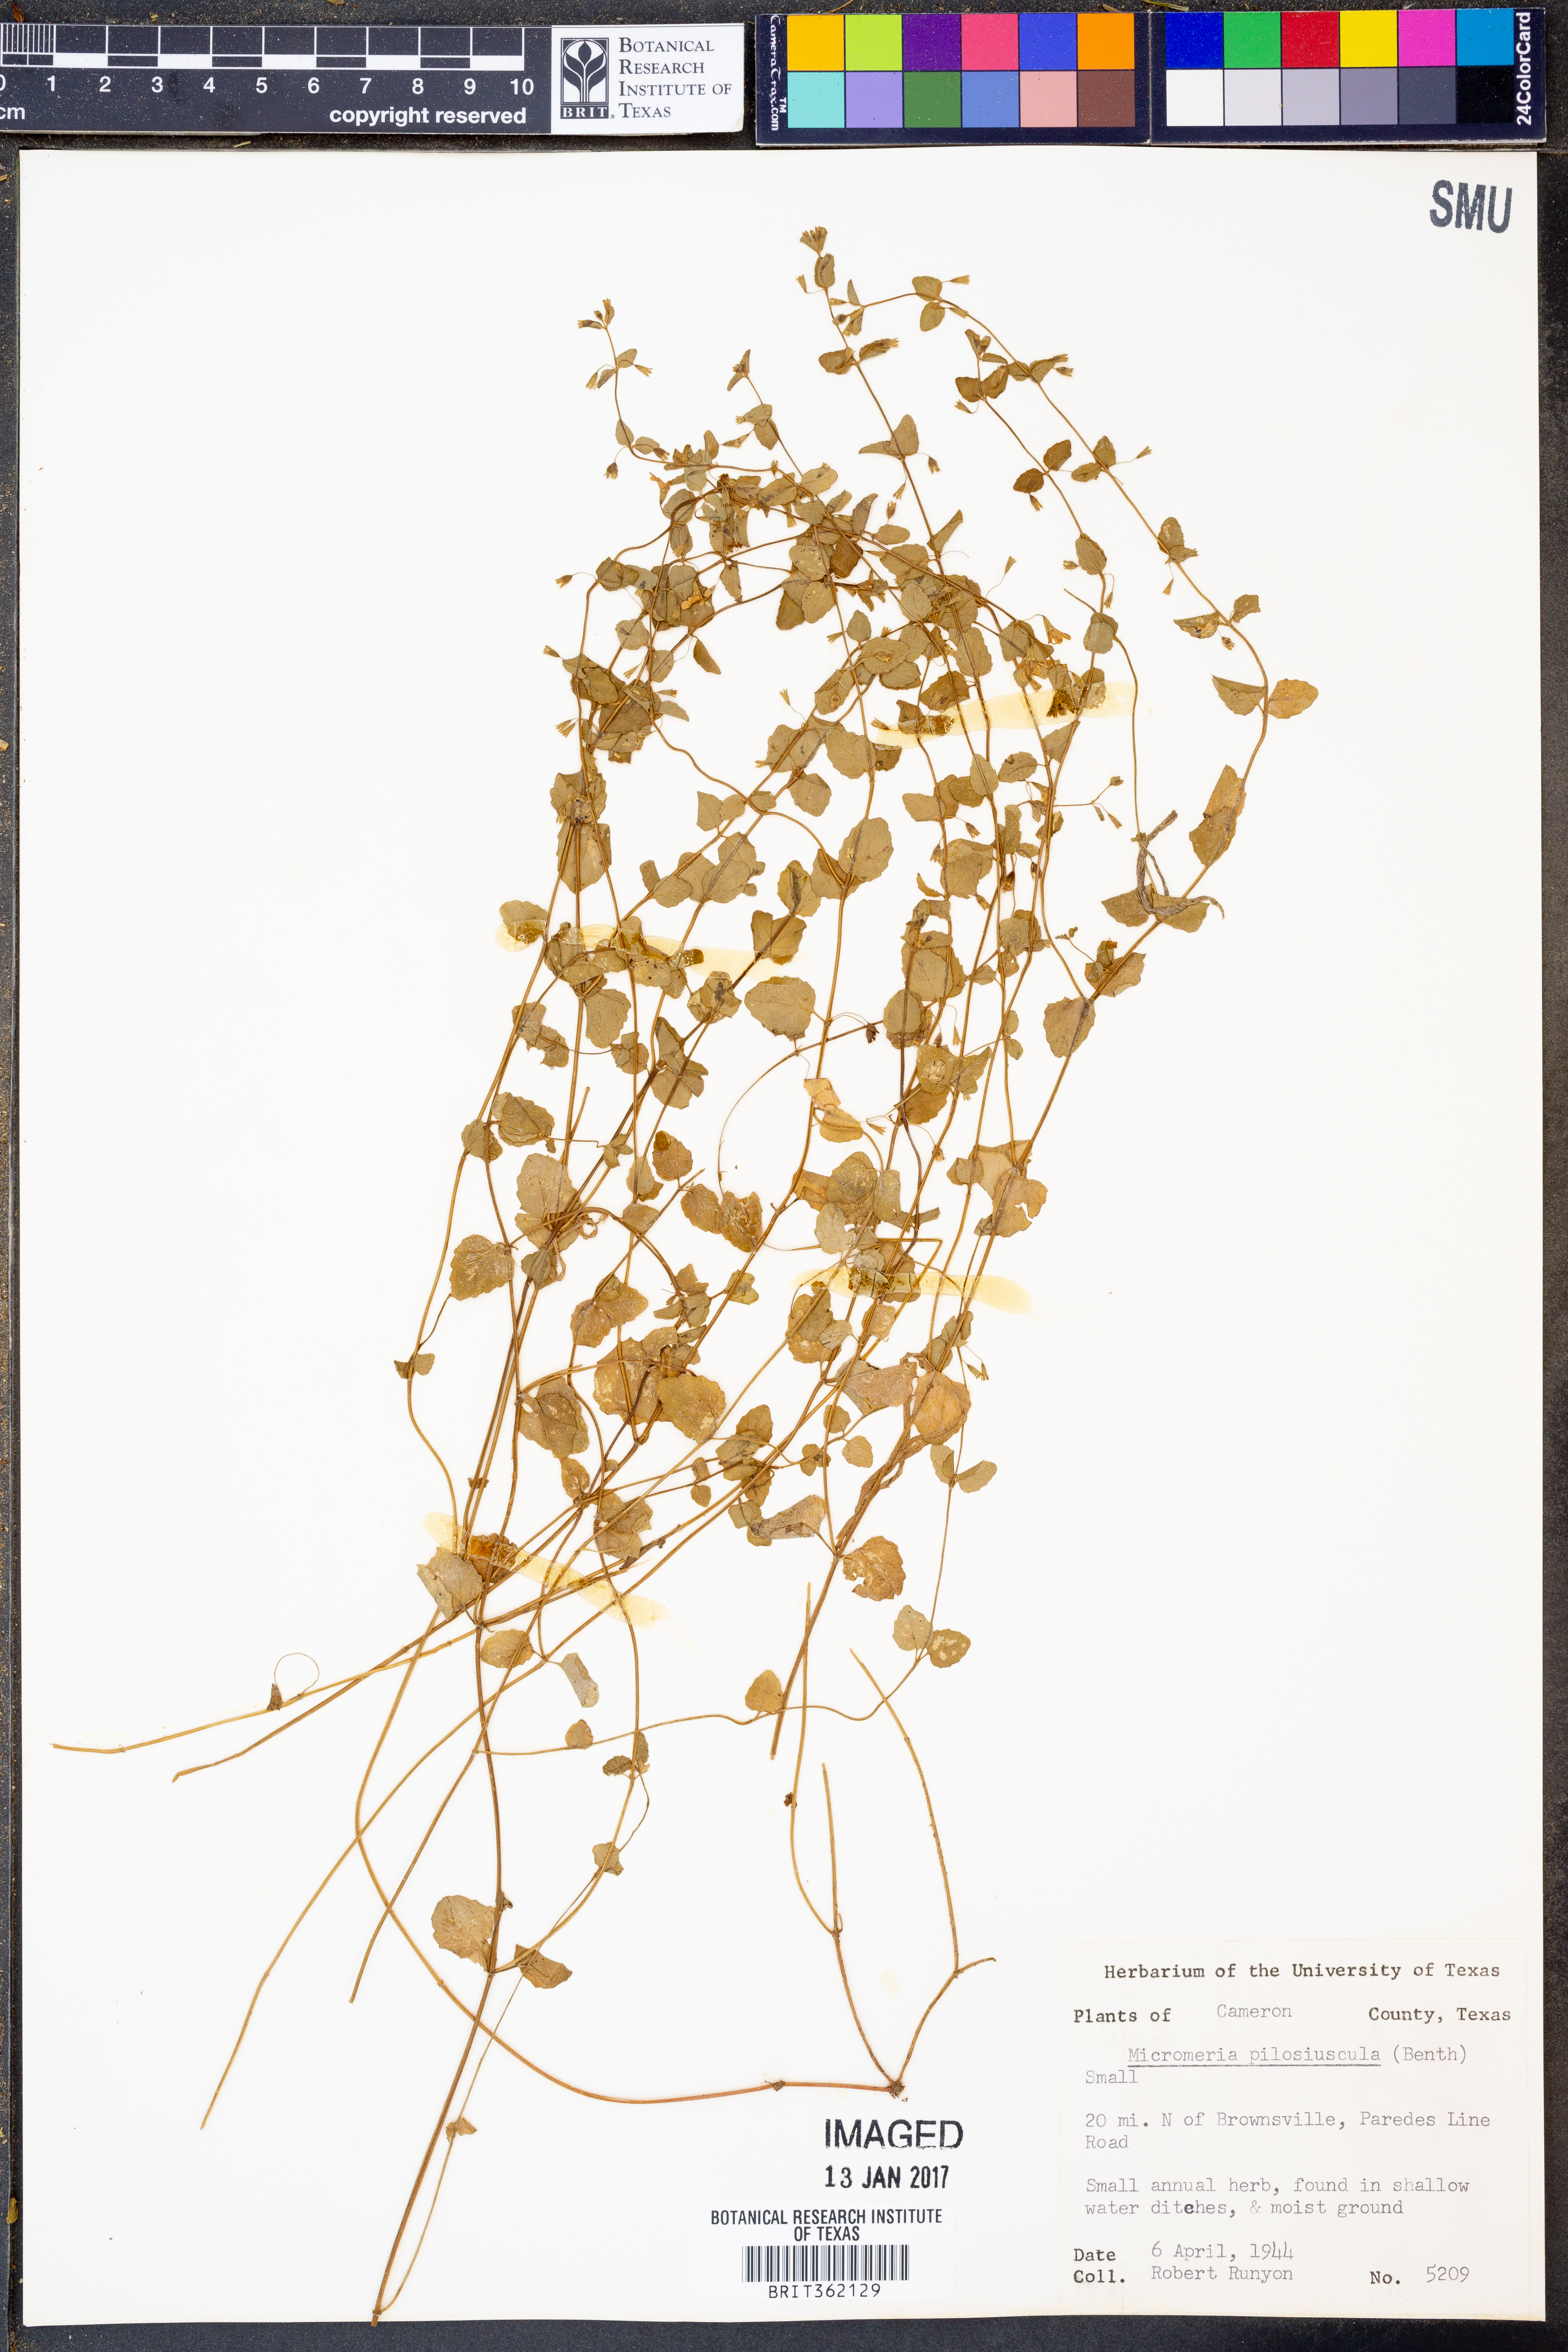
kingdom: Plantae
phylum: Tracheophyta
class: Magnoliopsida
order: Lamiales
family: Lamiaceae
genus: Clinopodium
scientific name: Clinopodium brownei
